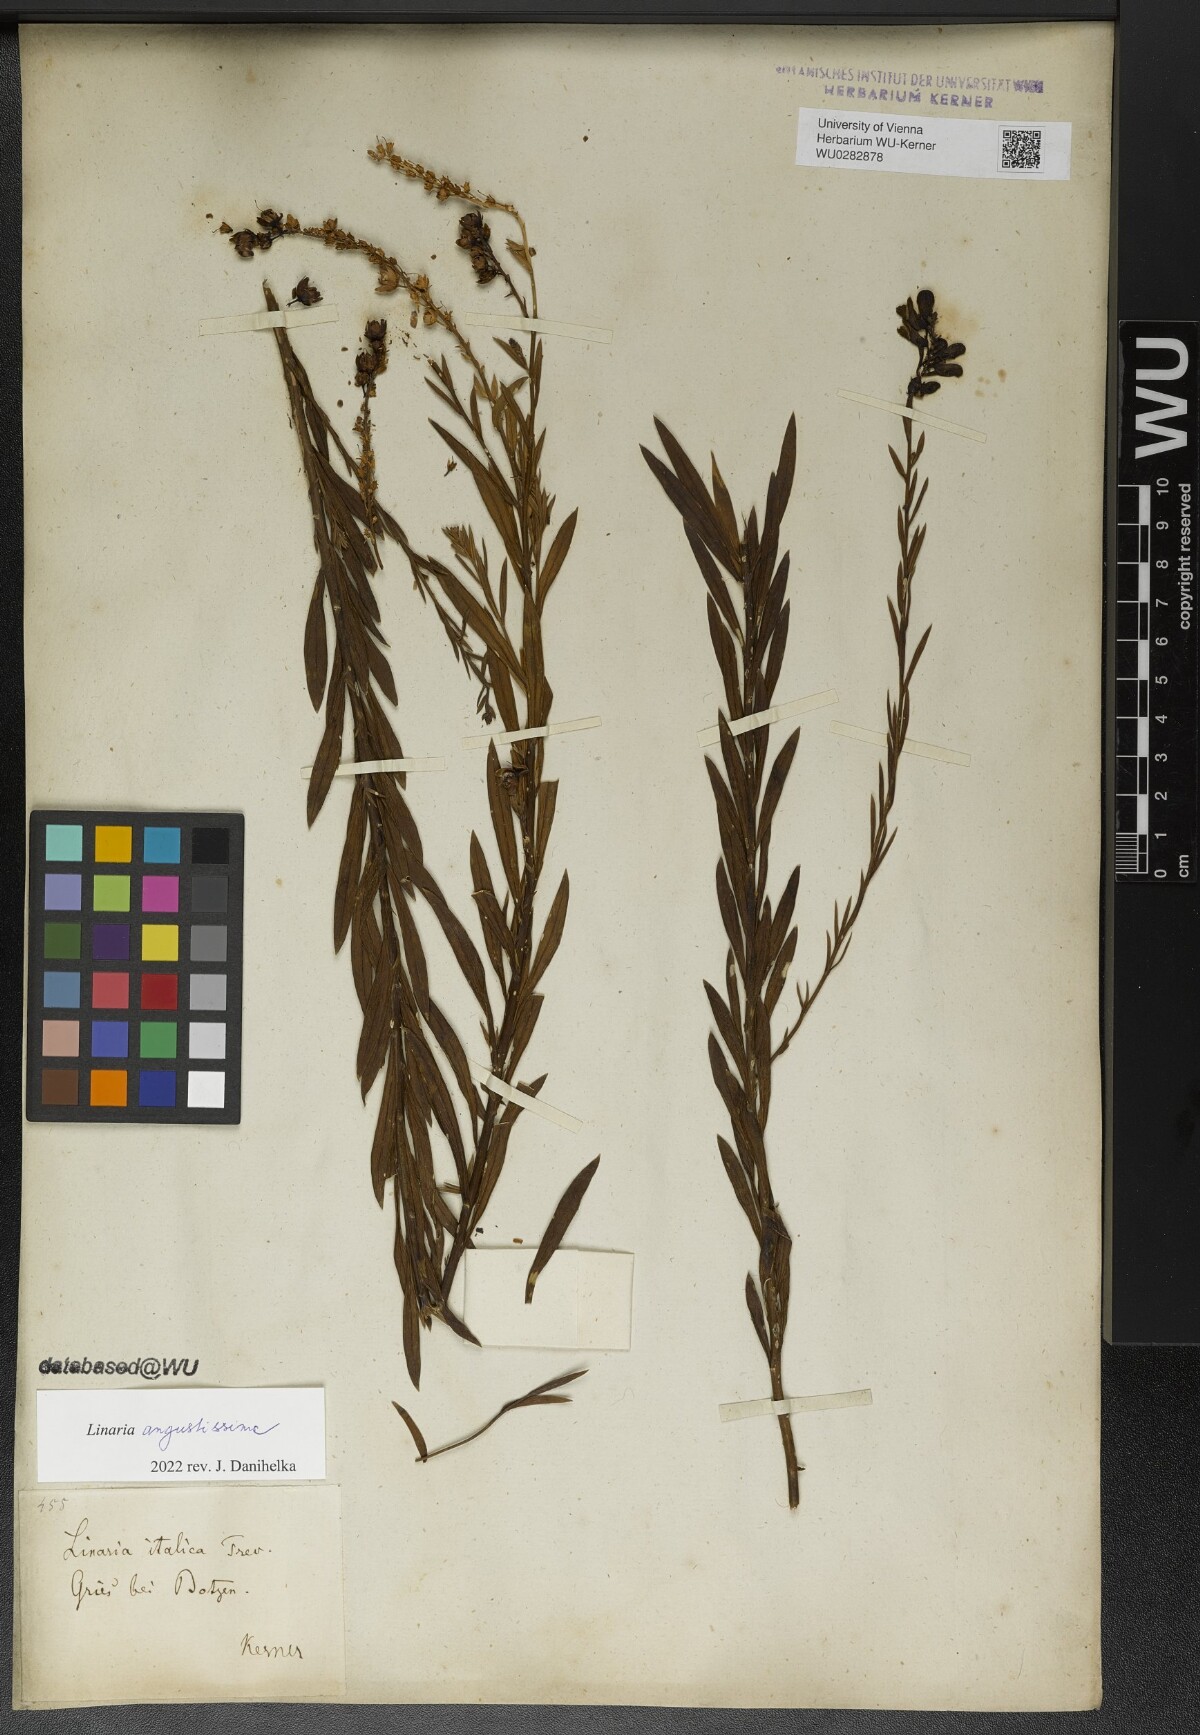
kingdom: Plantae
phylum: Tracheophyta
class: Magnoliopsida
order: Lamiales
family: Plantaginaceae
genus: Linaria
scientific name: Linaria angustissima
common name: Italian toadflax
